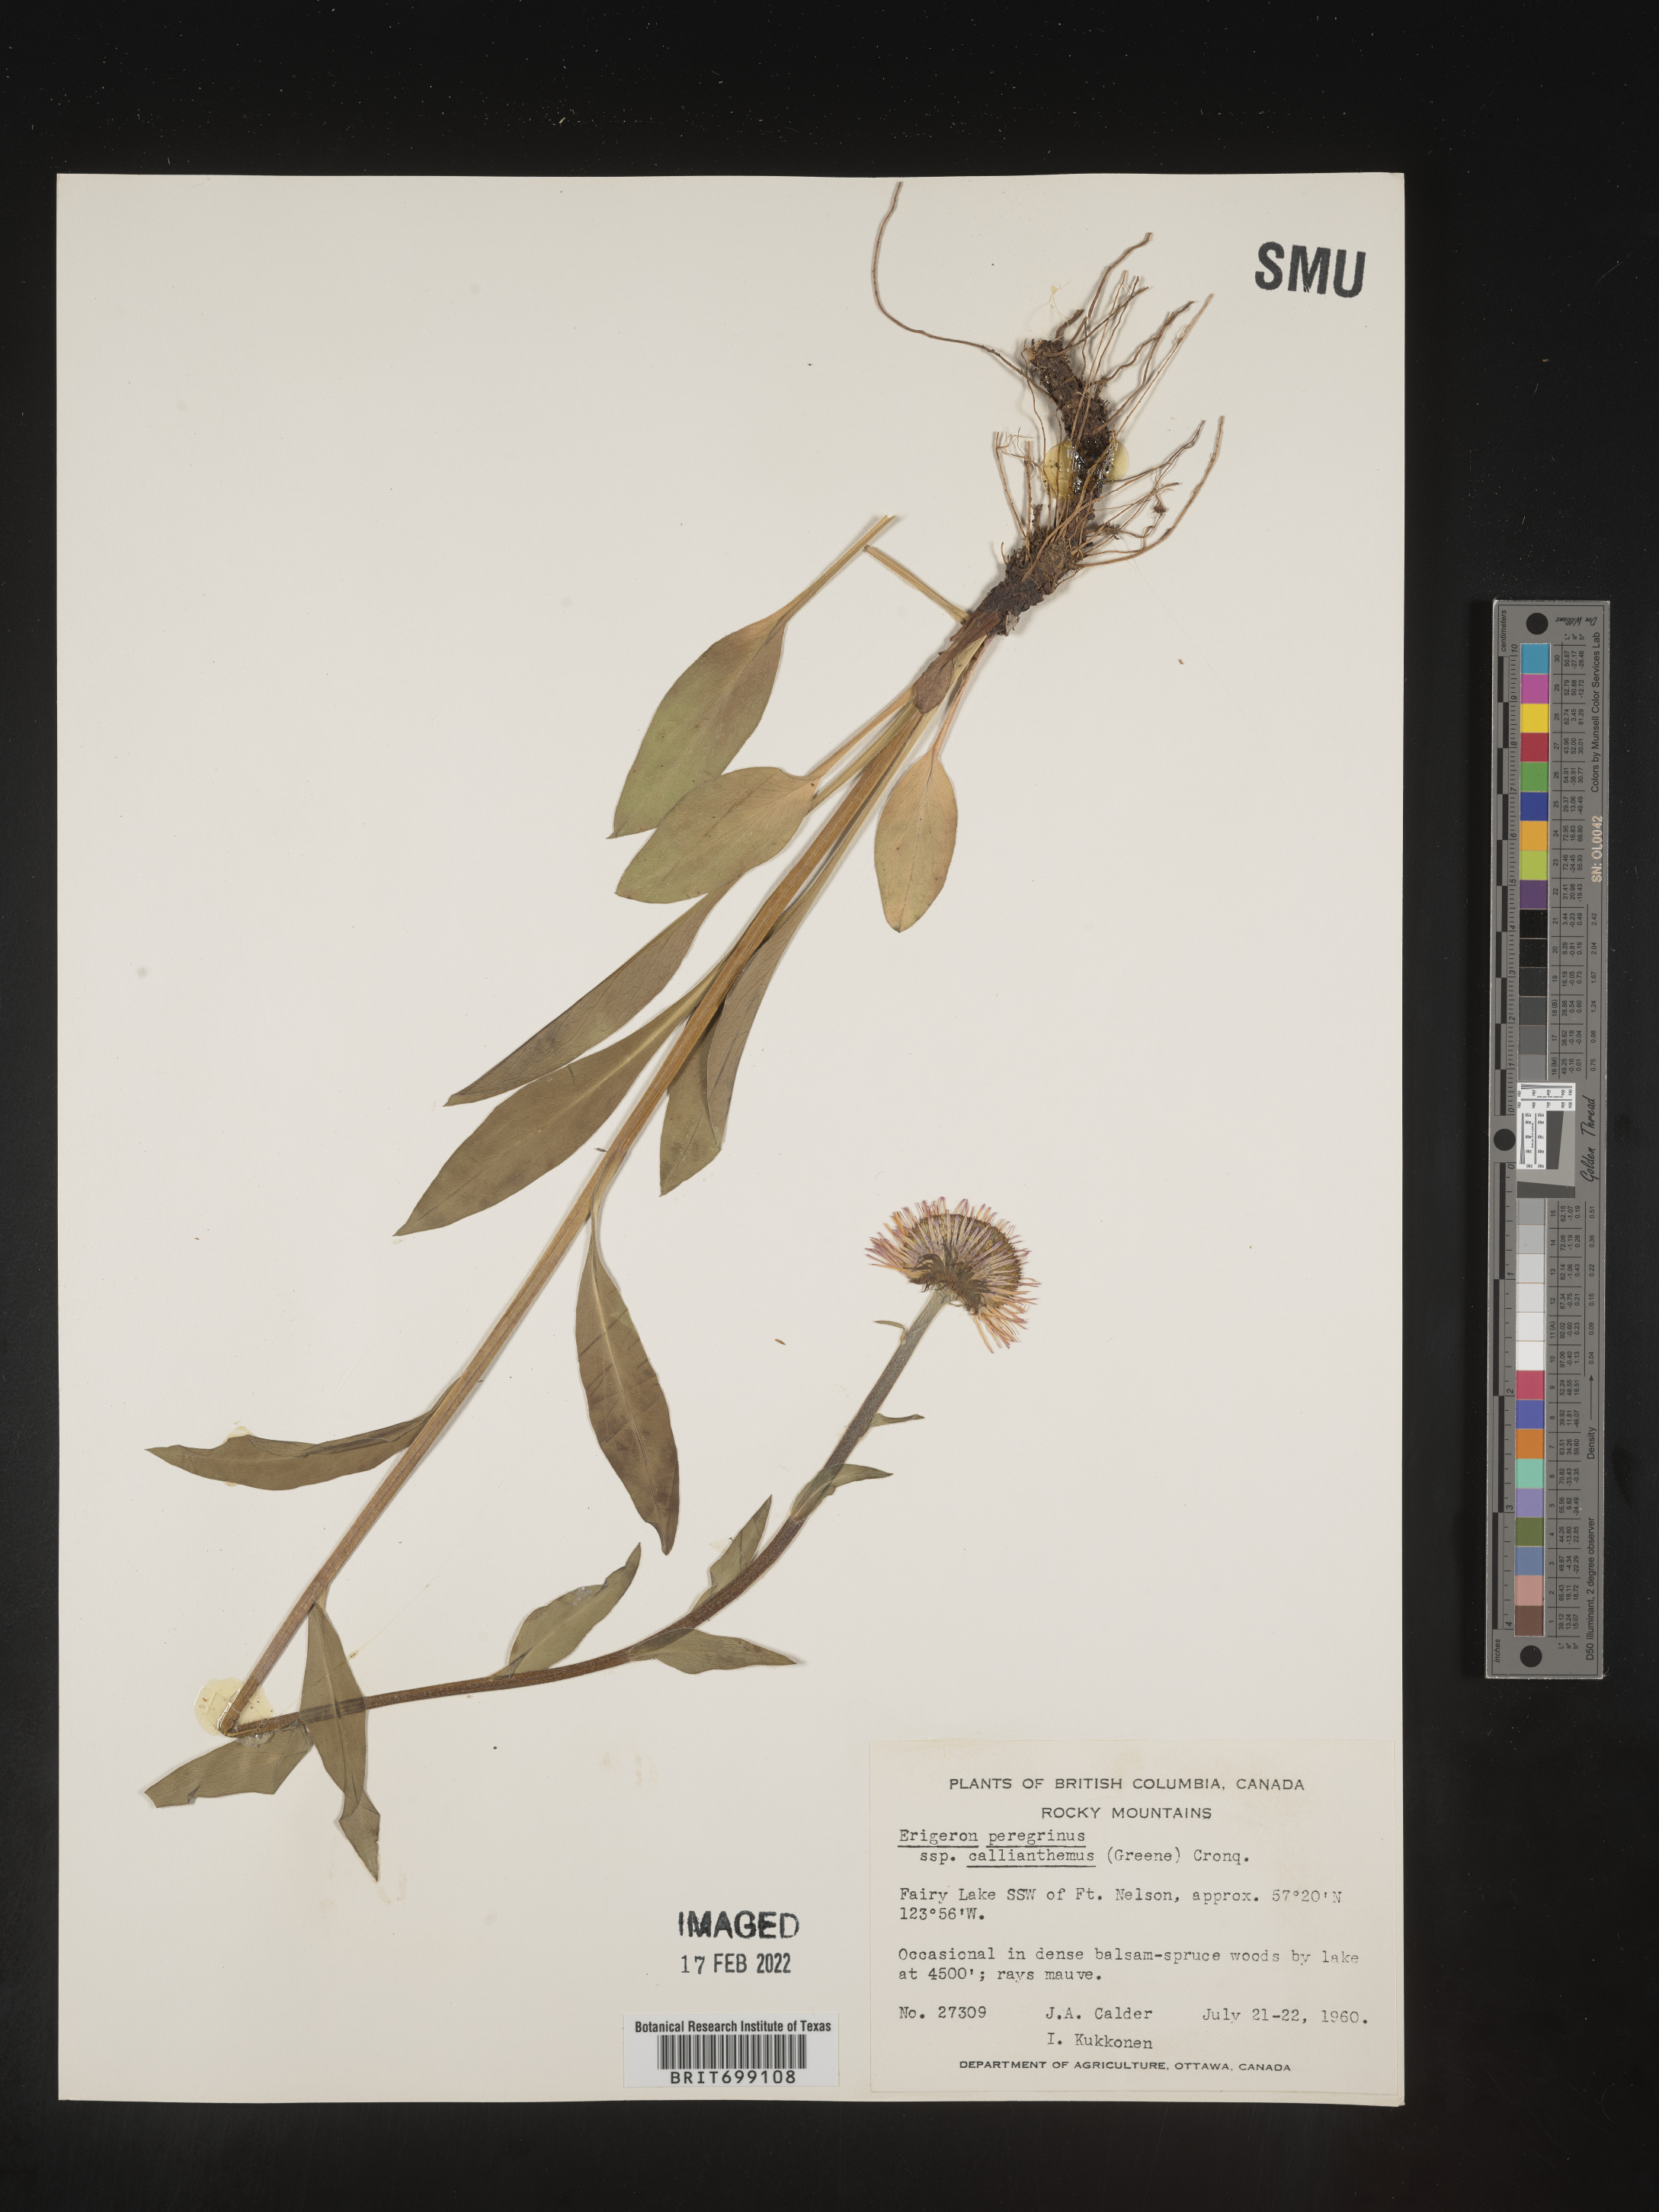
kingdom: Plantae
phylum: Tracheophyta
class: Magnoliopsida
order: Asterales
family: Asteraceae
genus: Erigeron
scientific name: Erigeron peregrinus
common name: Peregrine fleabane
